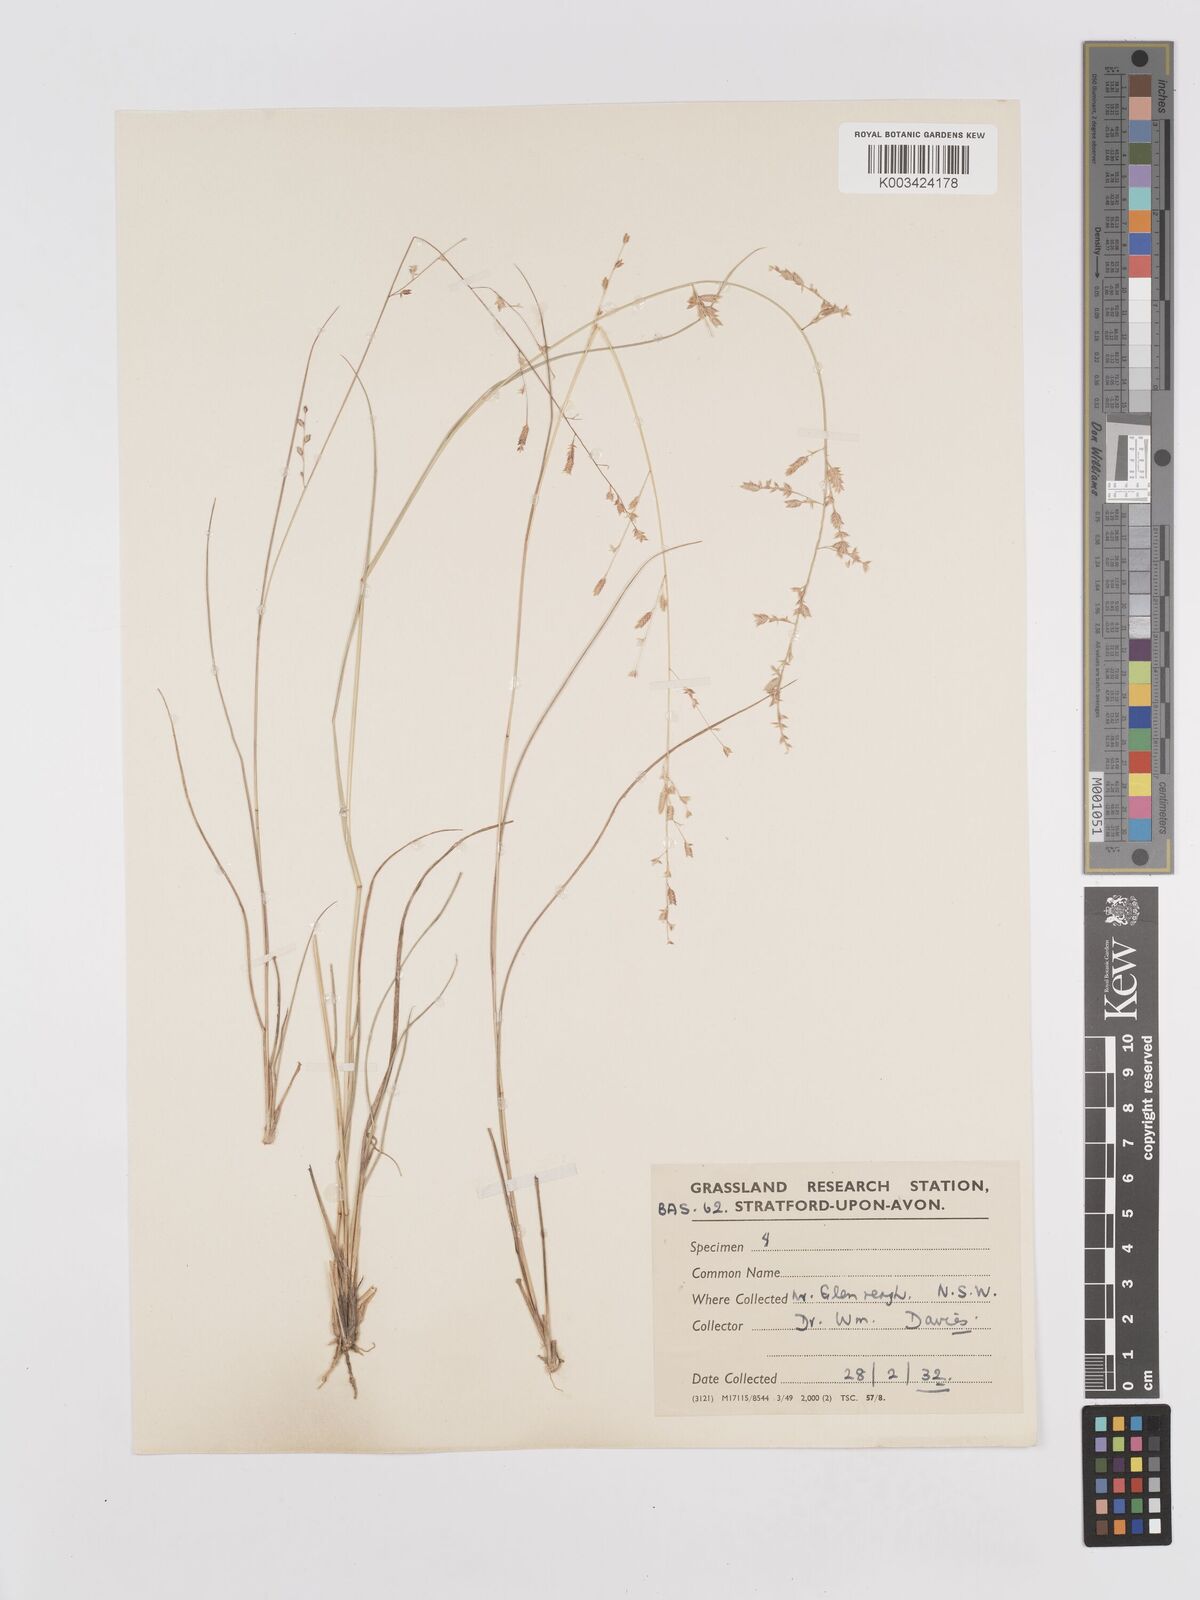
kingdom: Plantae
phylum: Tracheophyta
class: Liliopsida
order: Poales
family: Poaceae
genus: Eragrostis
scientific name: Eragrostis brownii
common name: Lovegrass
